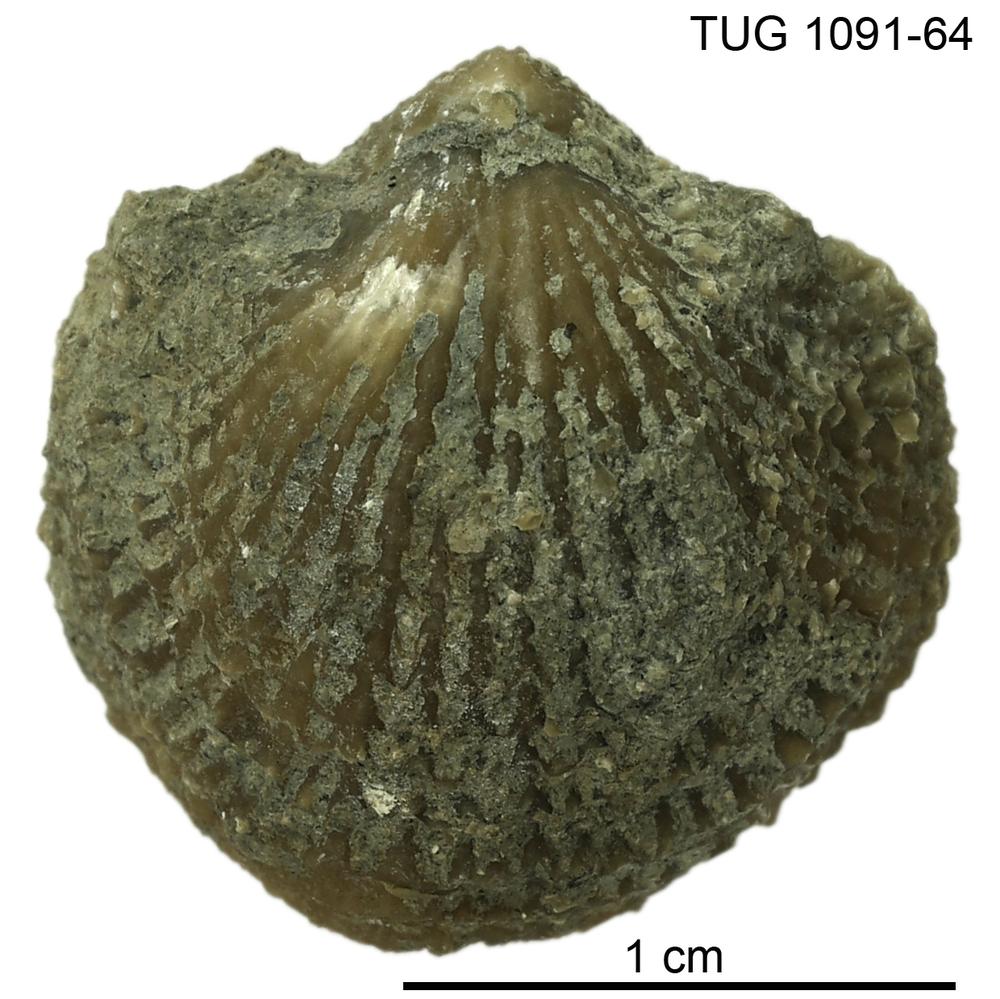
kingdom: Animalia
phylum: Brachiopoda
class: Rhynchonellata
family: Atrypidae
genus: Atrypa
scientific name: Atrypa
